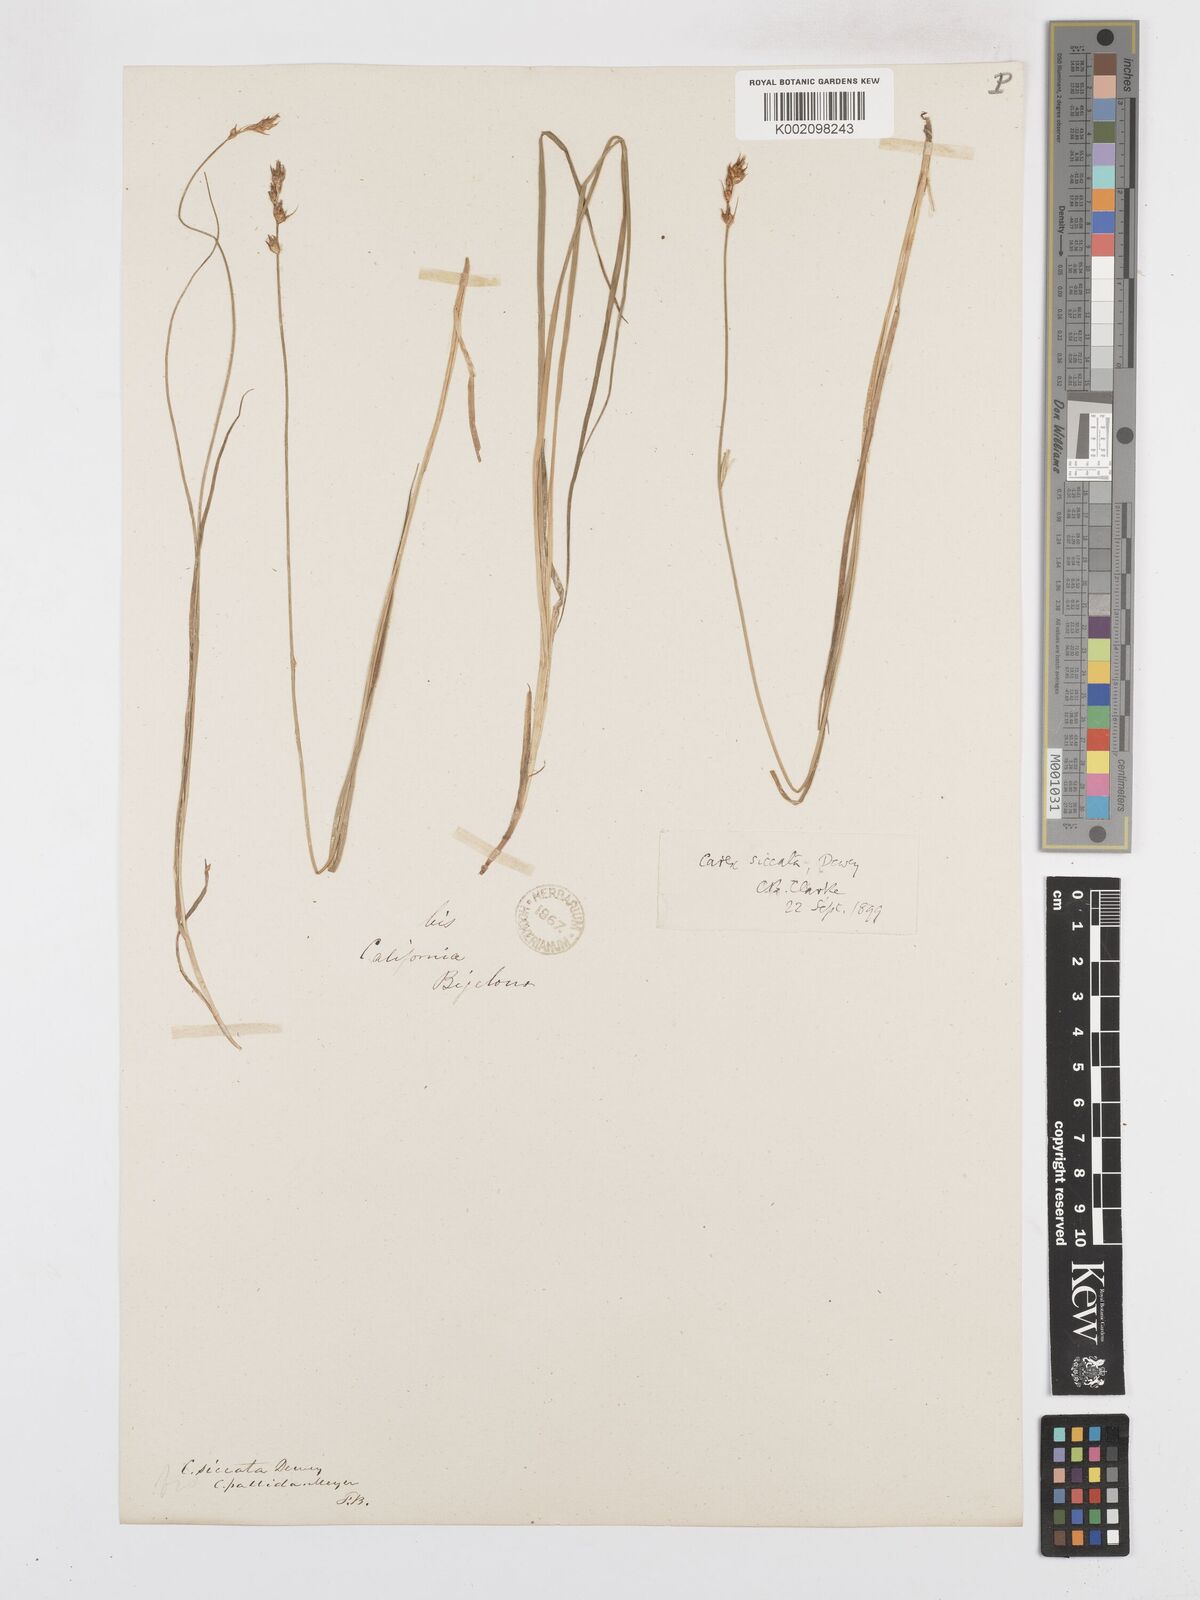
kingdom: Plantae
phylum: Tracheophyta
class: Liliopsida
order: Poales
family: Cyperaceae
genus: Carex
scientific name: Carex foenea
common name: Bronze sedge
